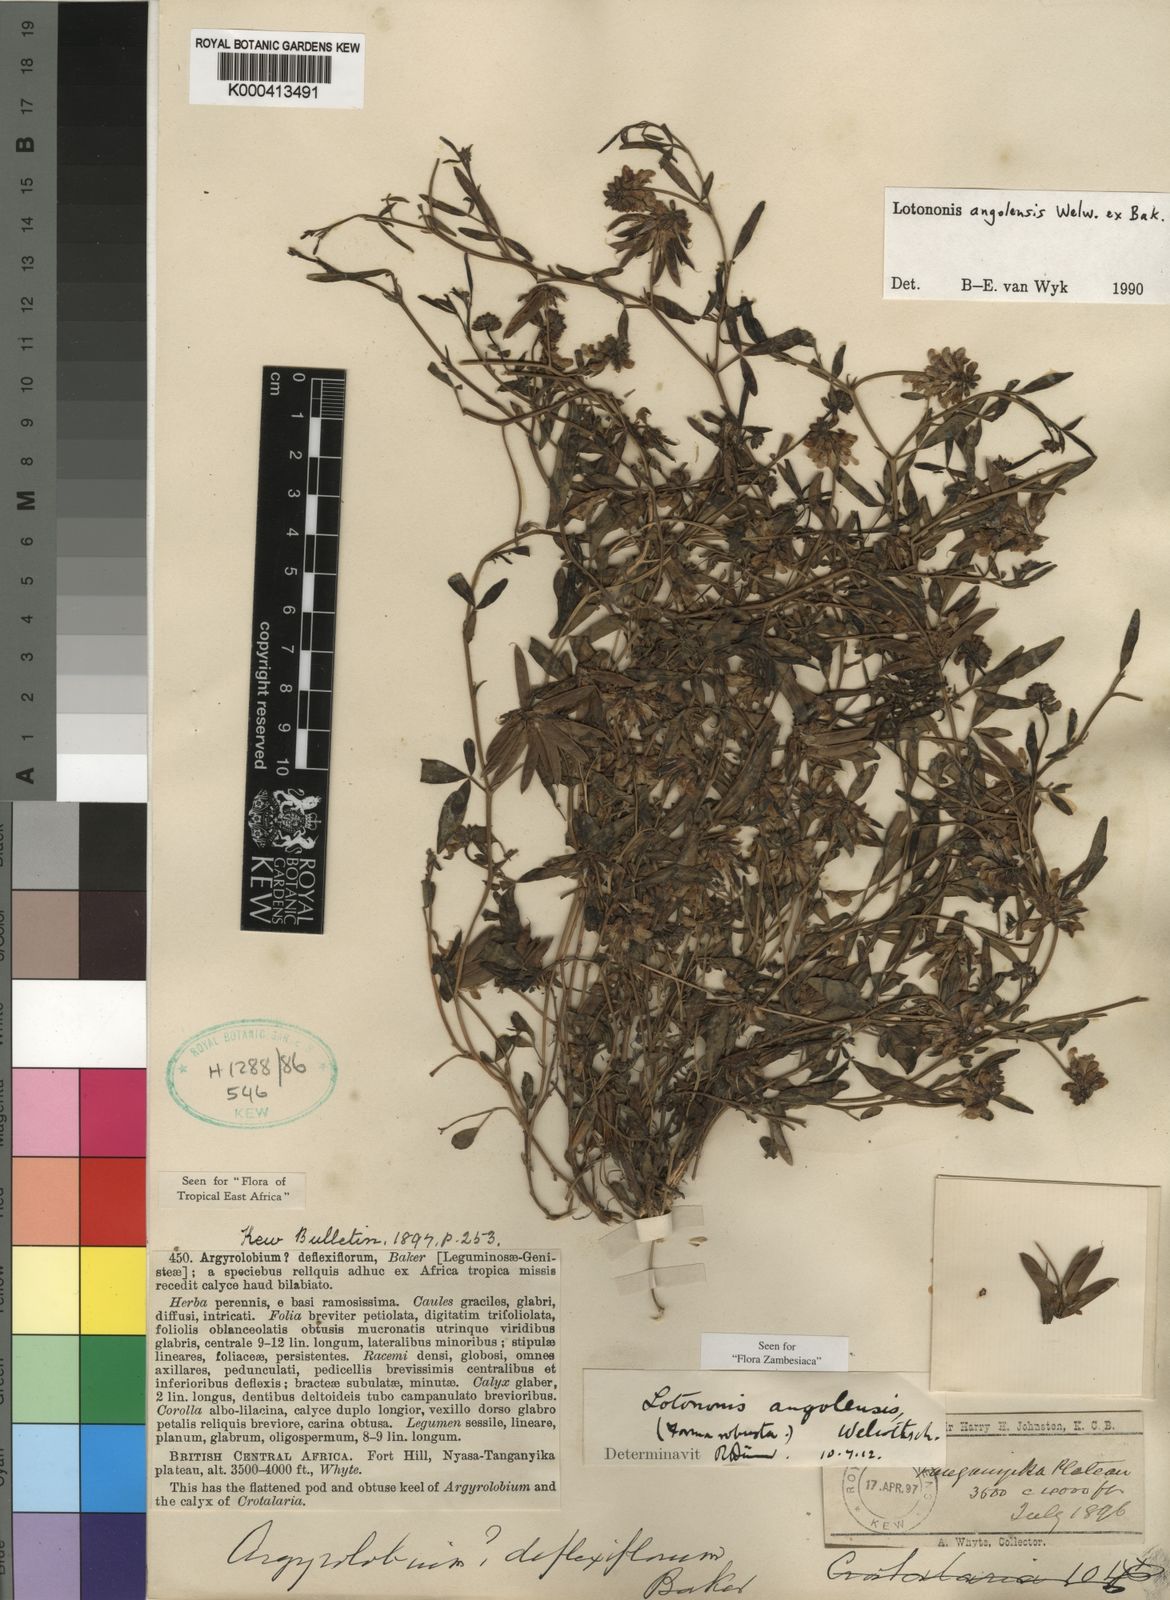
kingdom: Plantae
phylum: Tracheophyta
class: Magnoliopsida
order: Fabales
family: Fabaceae
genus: Listia
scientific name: Listia angolensis
